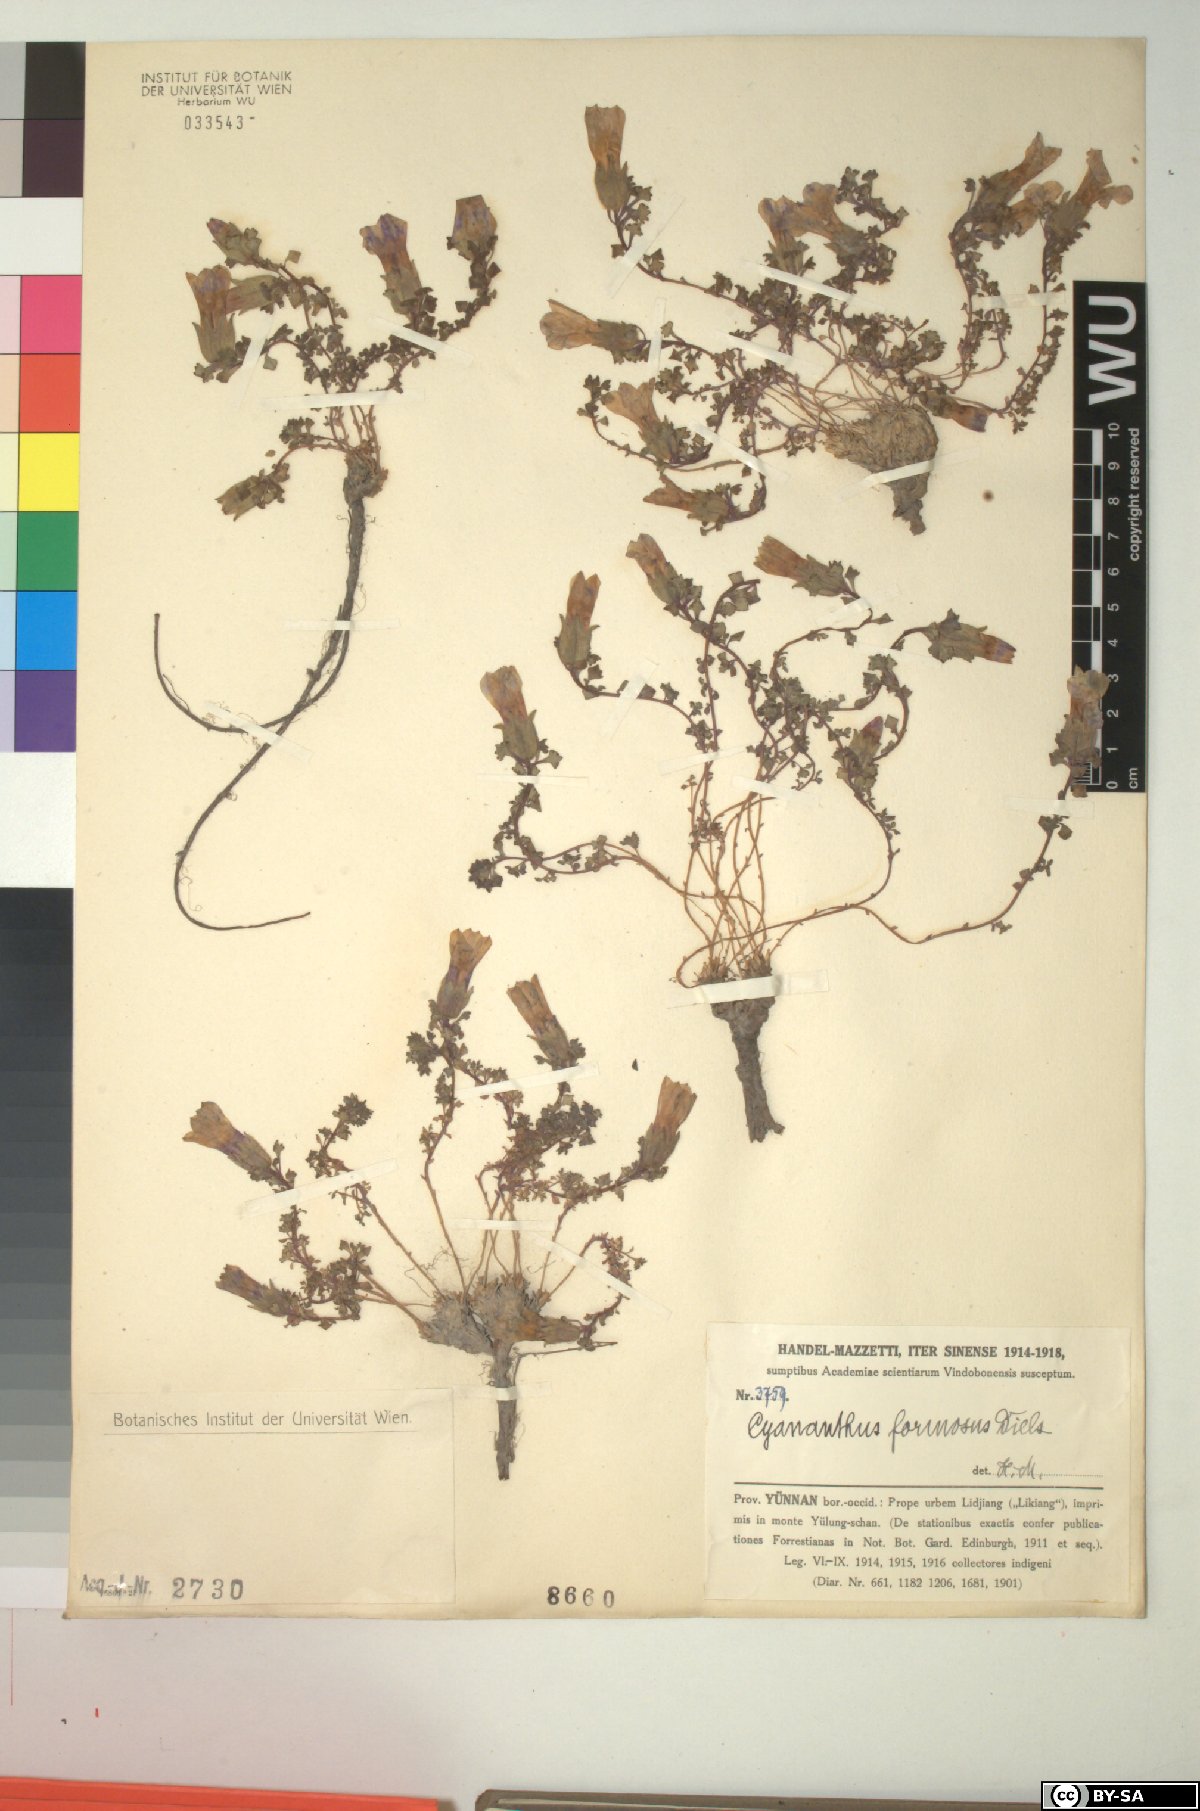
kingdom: Plantae
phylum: Tracheophyta
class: Magnoliopsida
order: Asterales
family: Campanulaceae
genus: Cyananthus
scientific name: Cyananthus formosus
